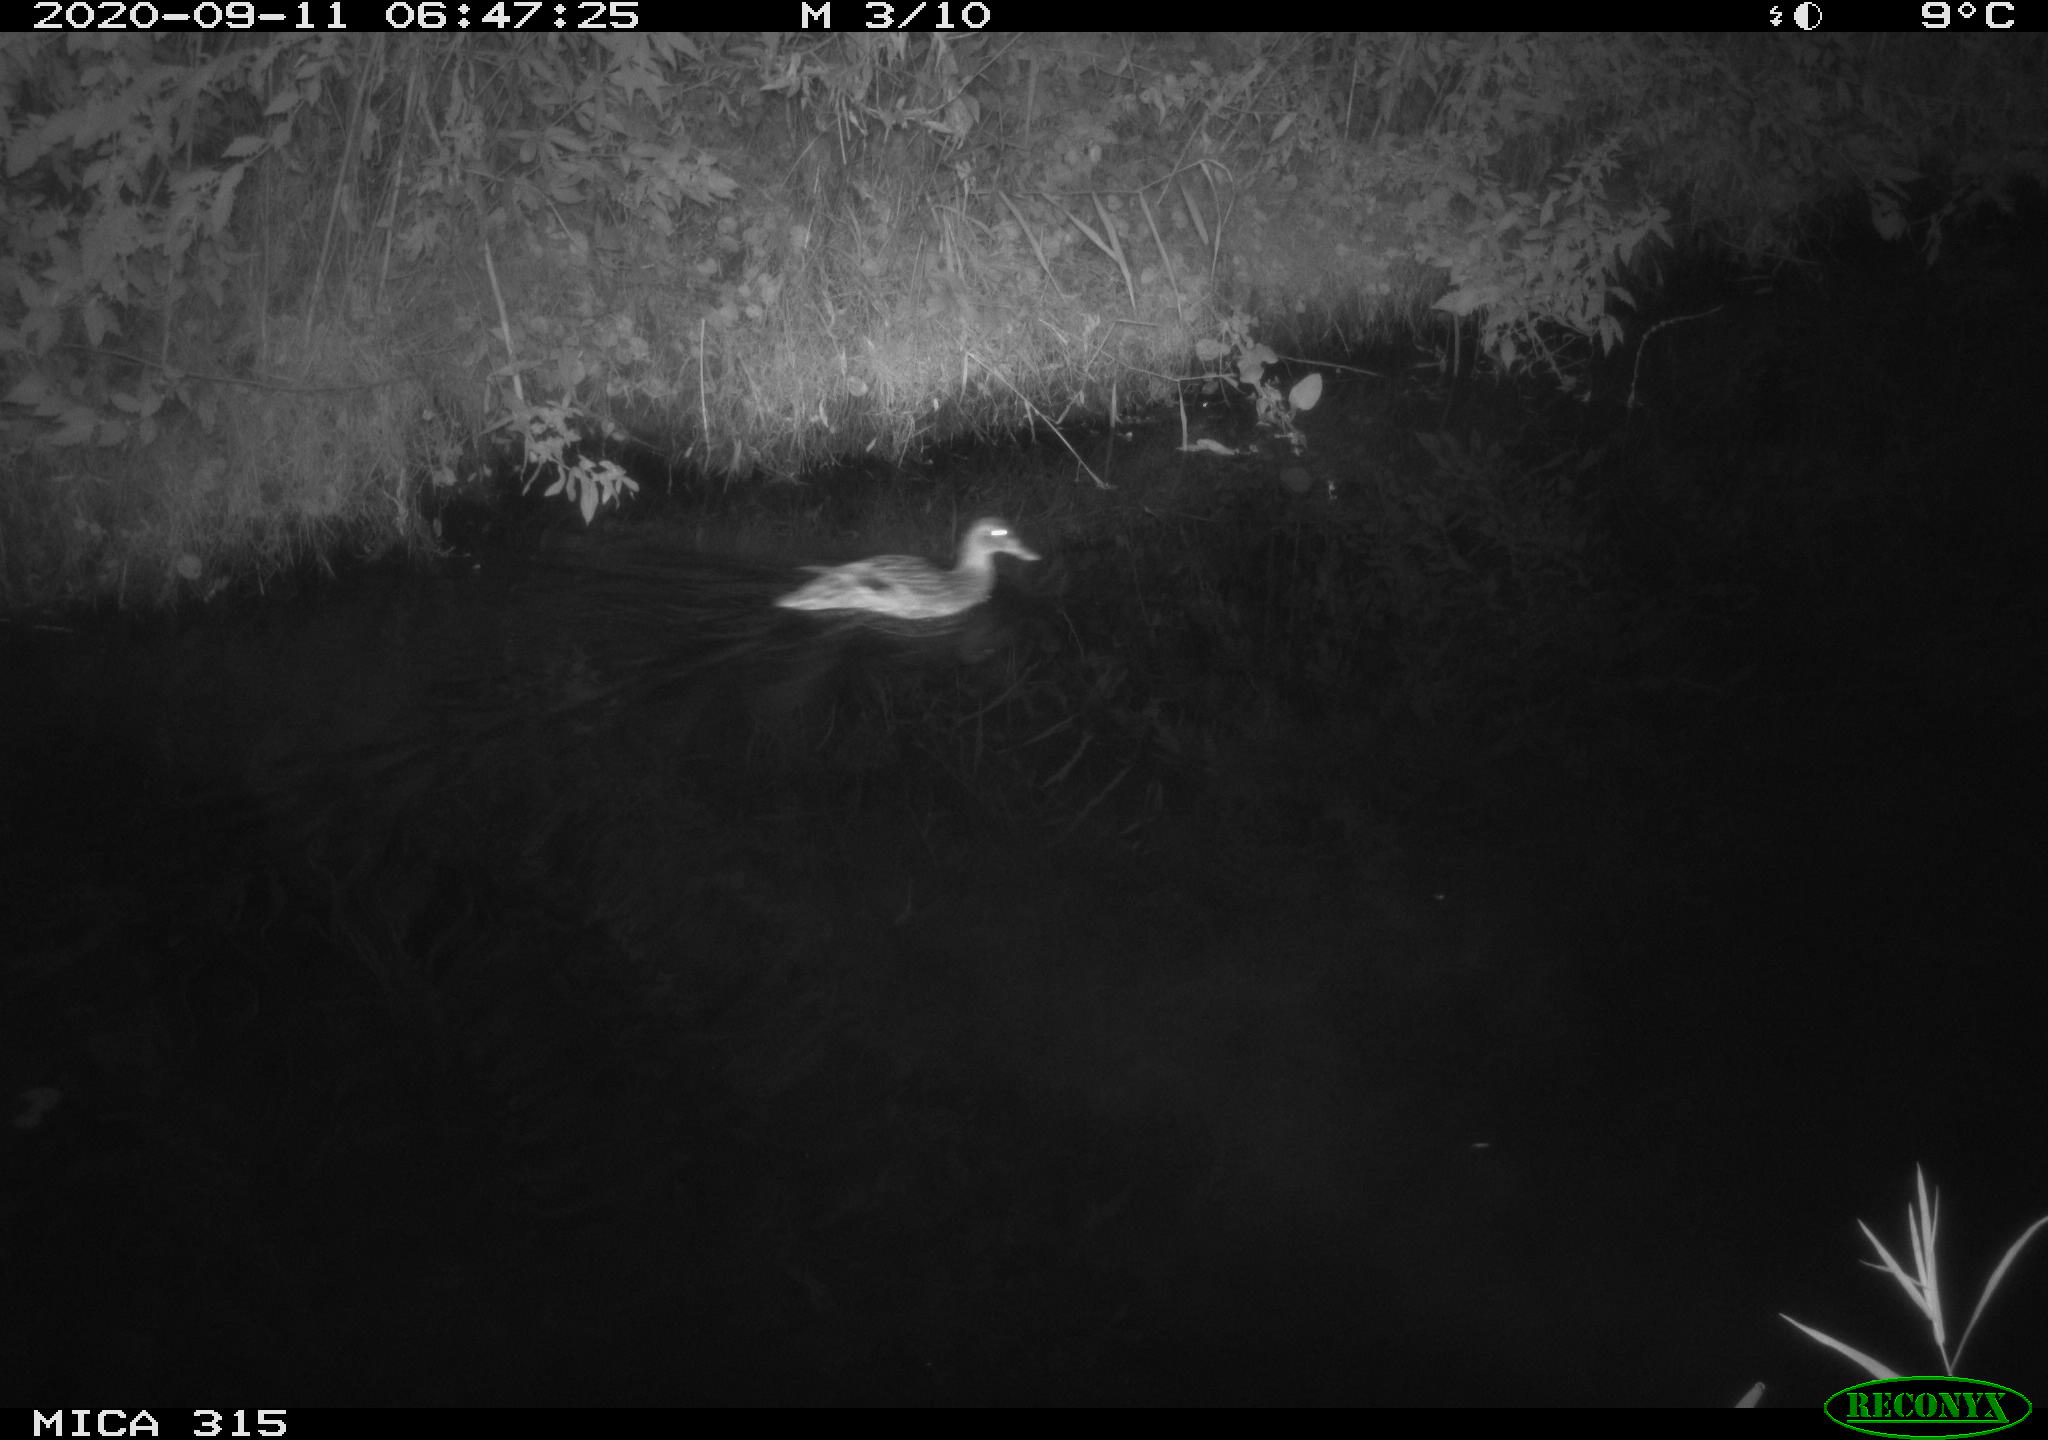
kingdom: Animalia
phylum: Chordata
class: Aves
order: Anseriformes
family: Anatidae
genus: Anas
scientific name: Anas platyrhynchos
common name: Mallard
